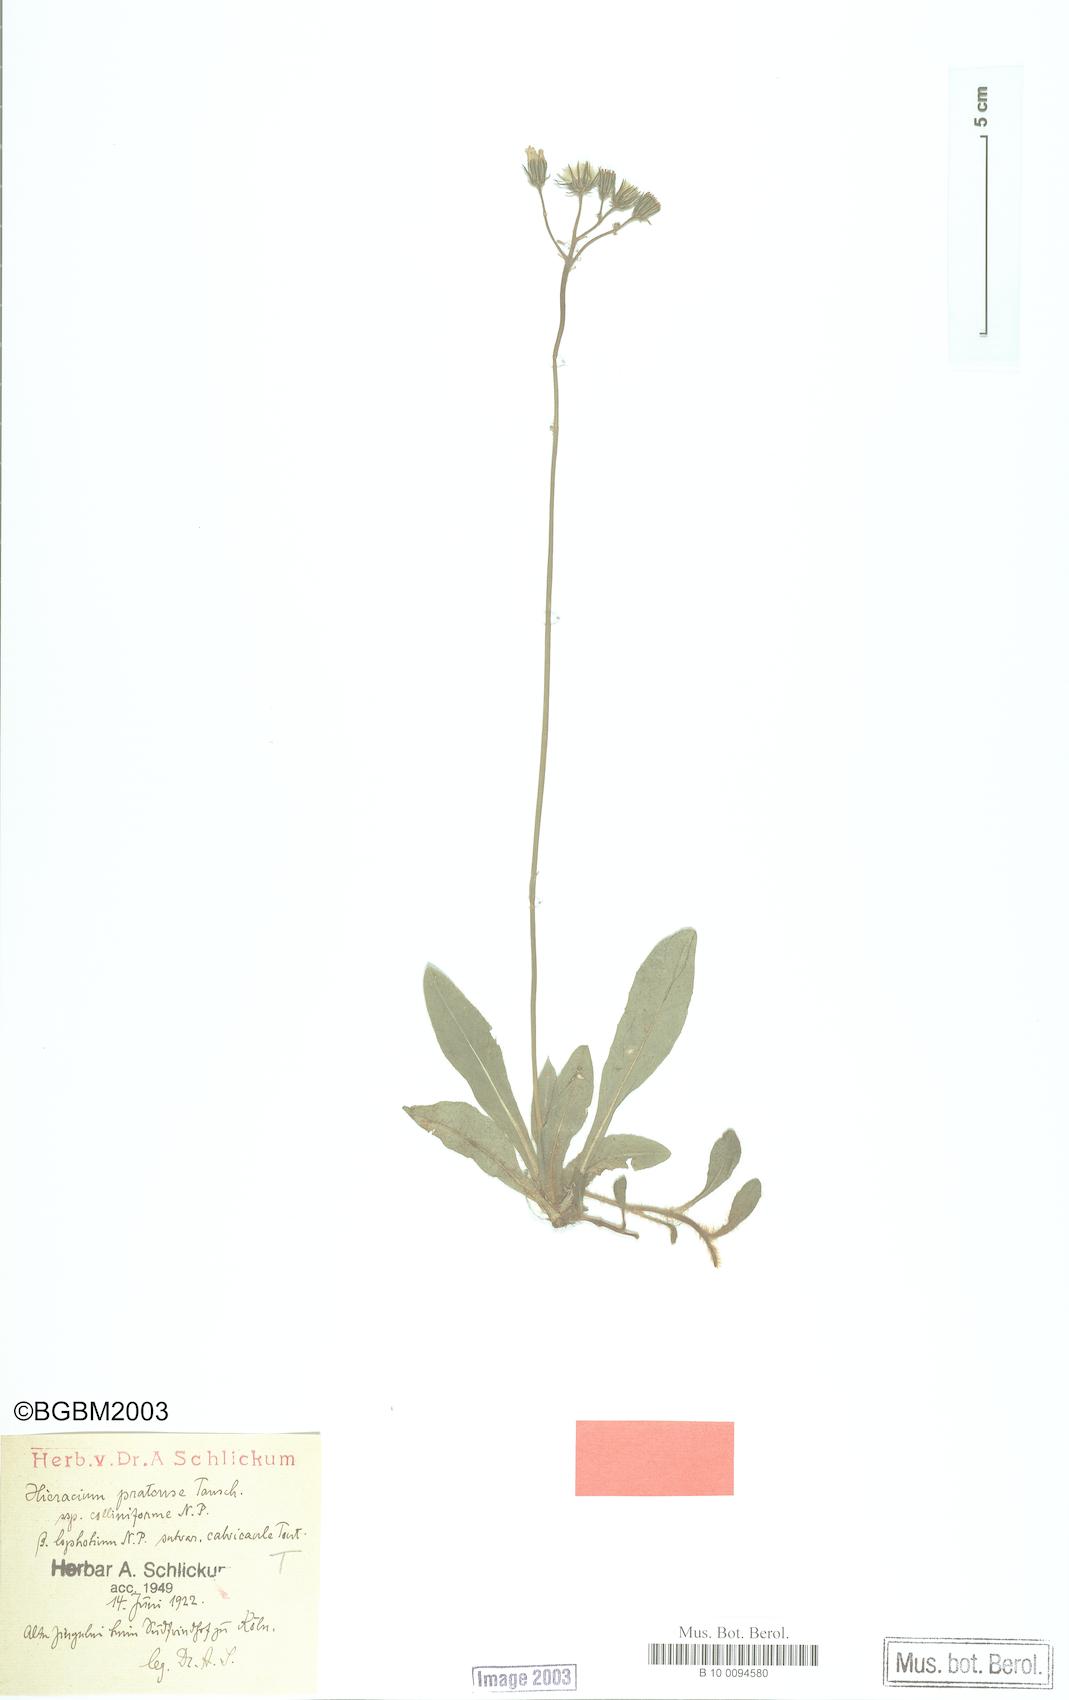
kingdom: Plantae
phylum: Tracheophyta
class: Magnoliopsida
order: Asterales
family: Asteraceae
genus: Pilosella
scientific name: Pilosella caespitosa
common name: Yellow fox-and-cubs
